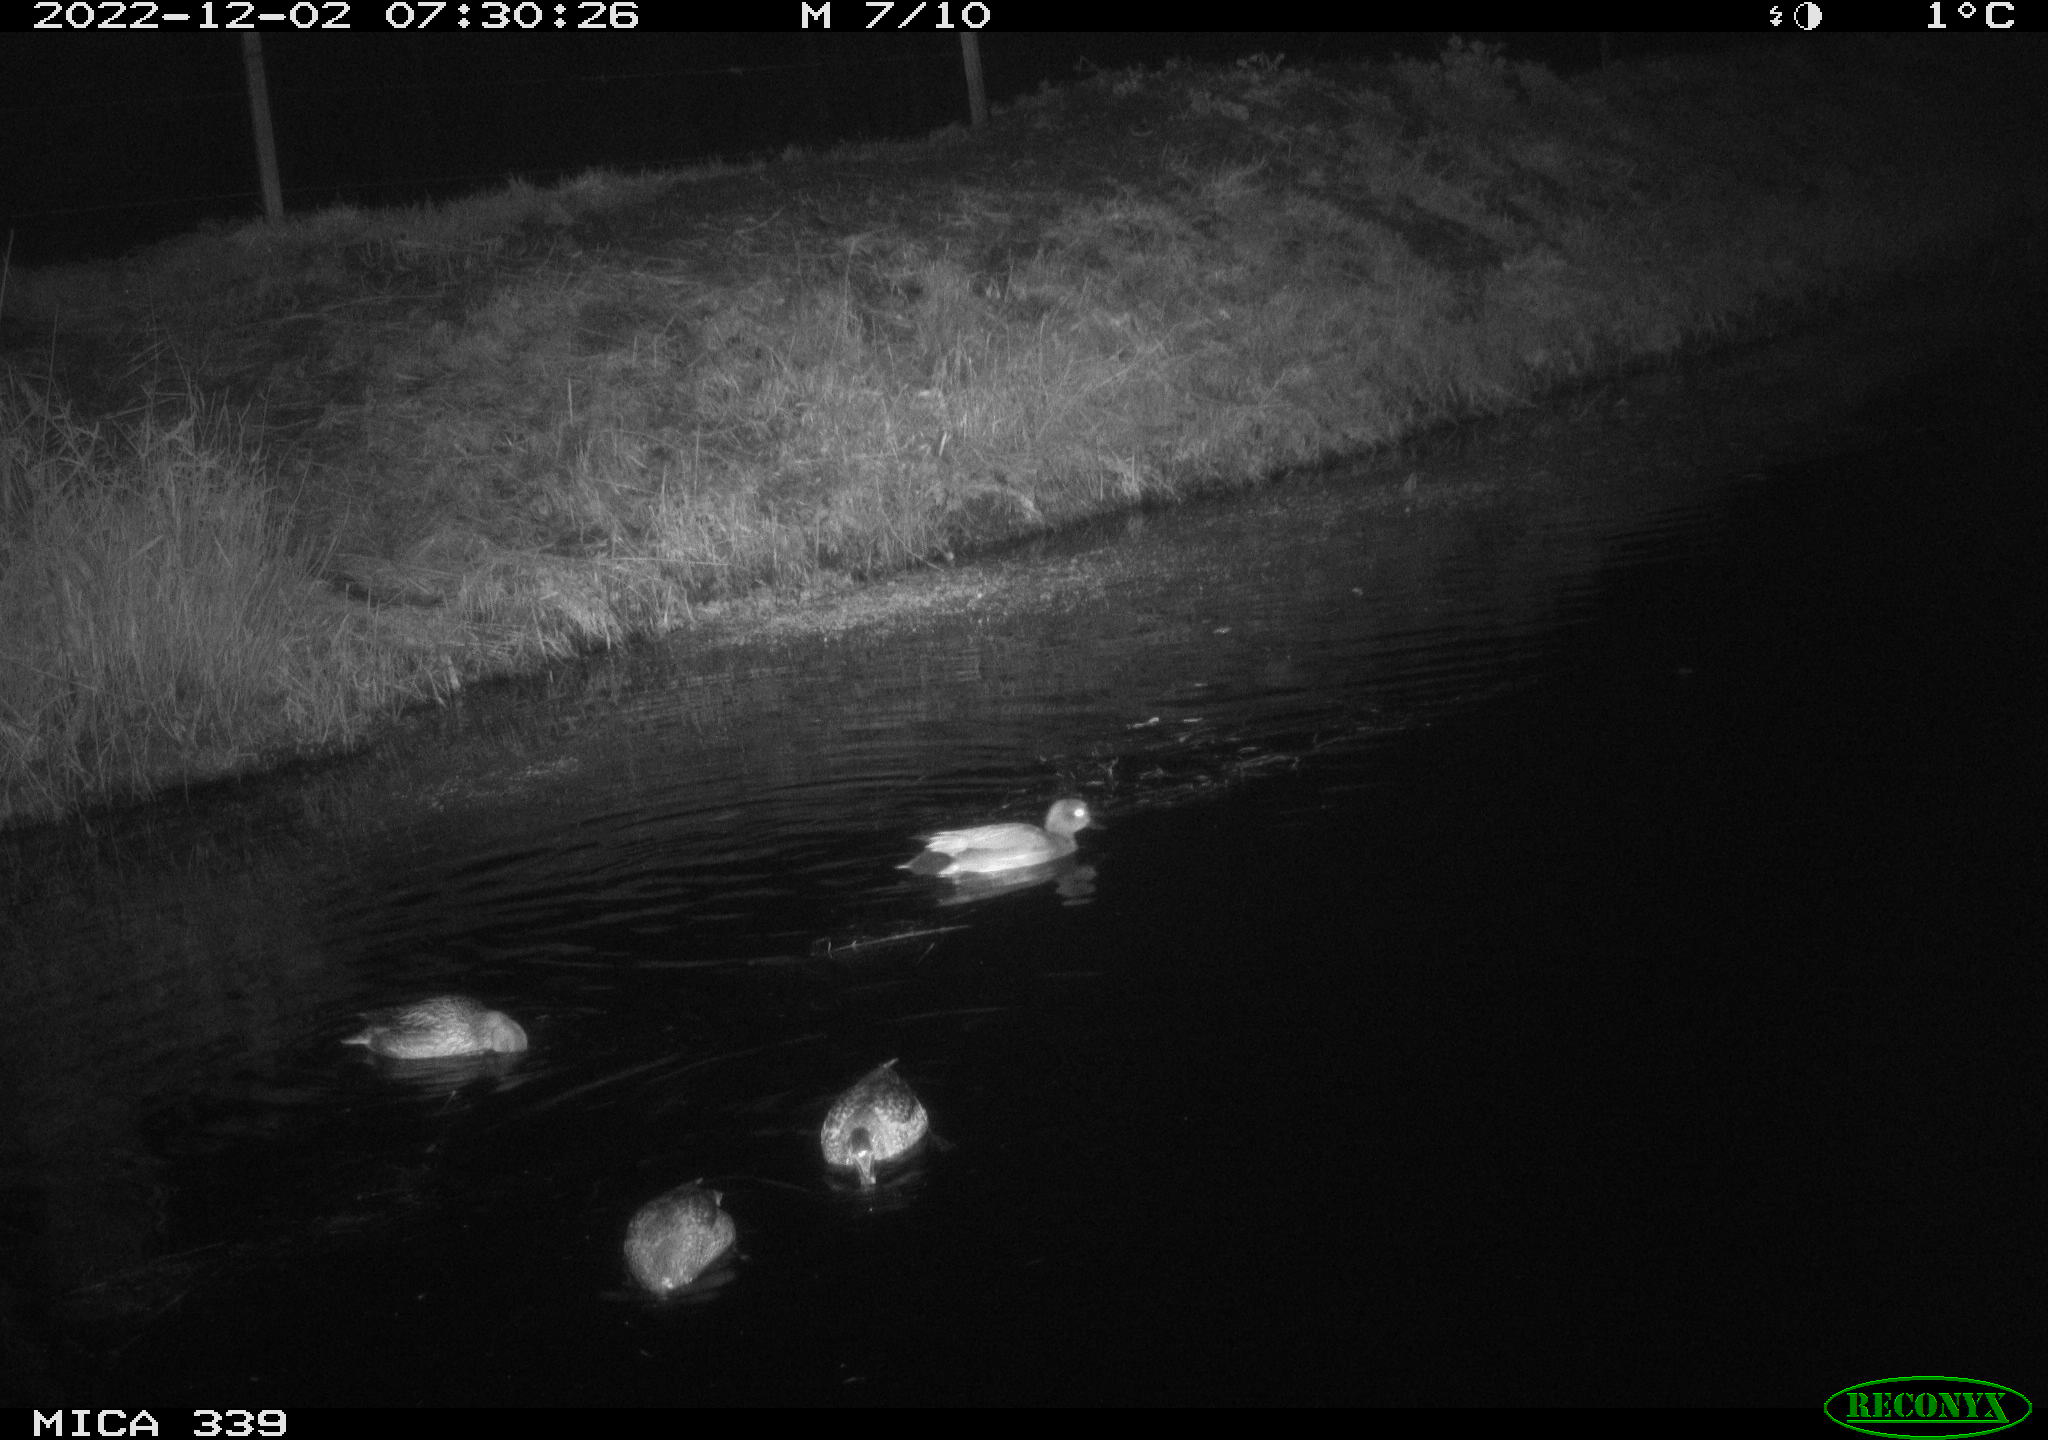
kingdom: Animalia
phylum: Chordata
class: Aves
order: Anseriformes
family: Anatidae
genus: Anas
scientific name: Anas platyrhynchos
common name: Mallard
